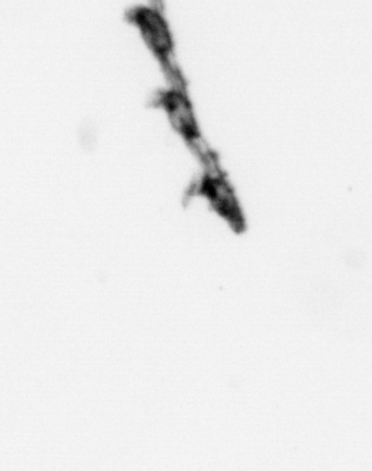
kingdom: Animalia
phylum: Cnidaria
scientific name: Cnidaria
